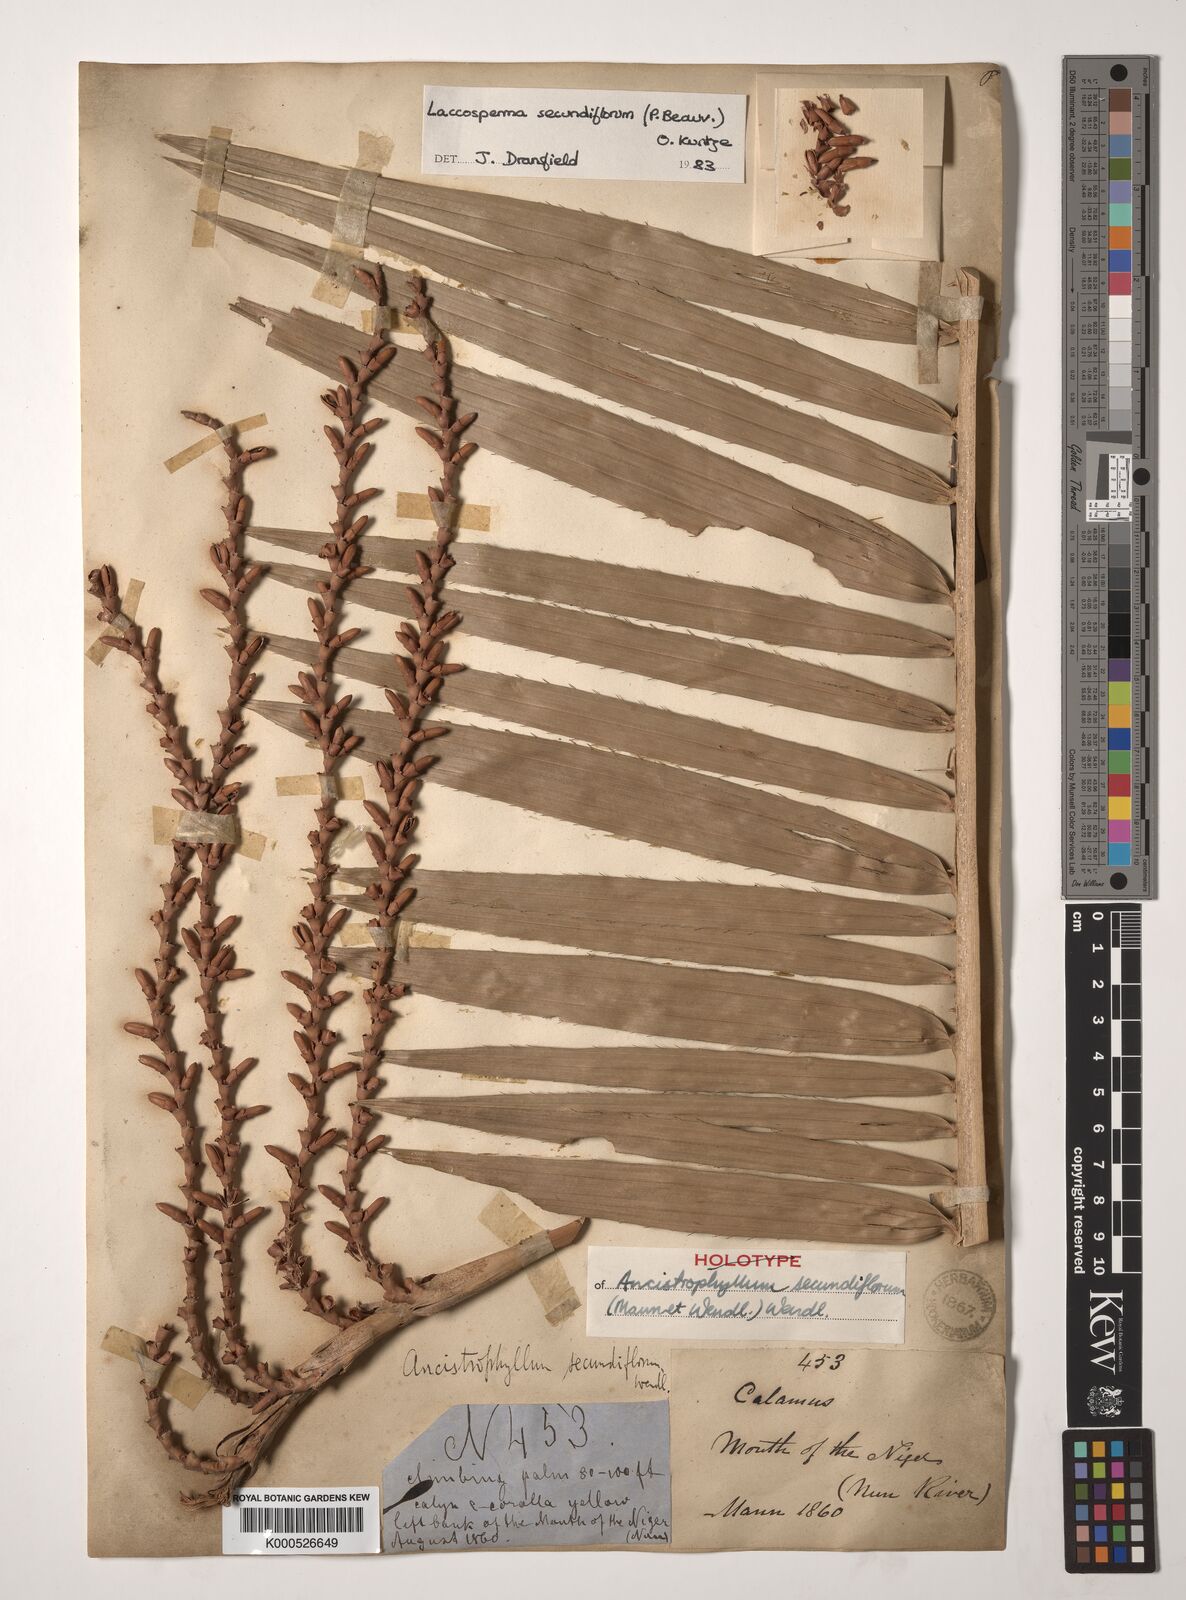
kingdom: Plantae
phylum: Tracheophyta
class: Liliopsida
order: Arecales
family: Arecaceae
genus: Laccosperma
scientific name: Laccosperma secundiflorum
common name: Rattan
